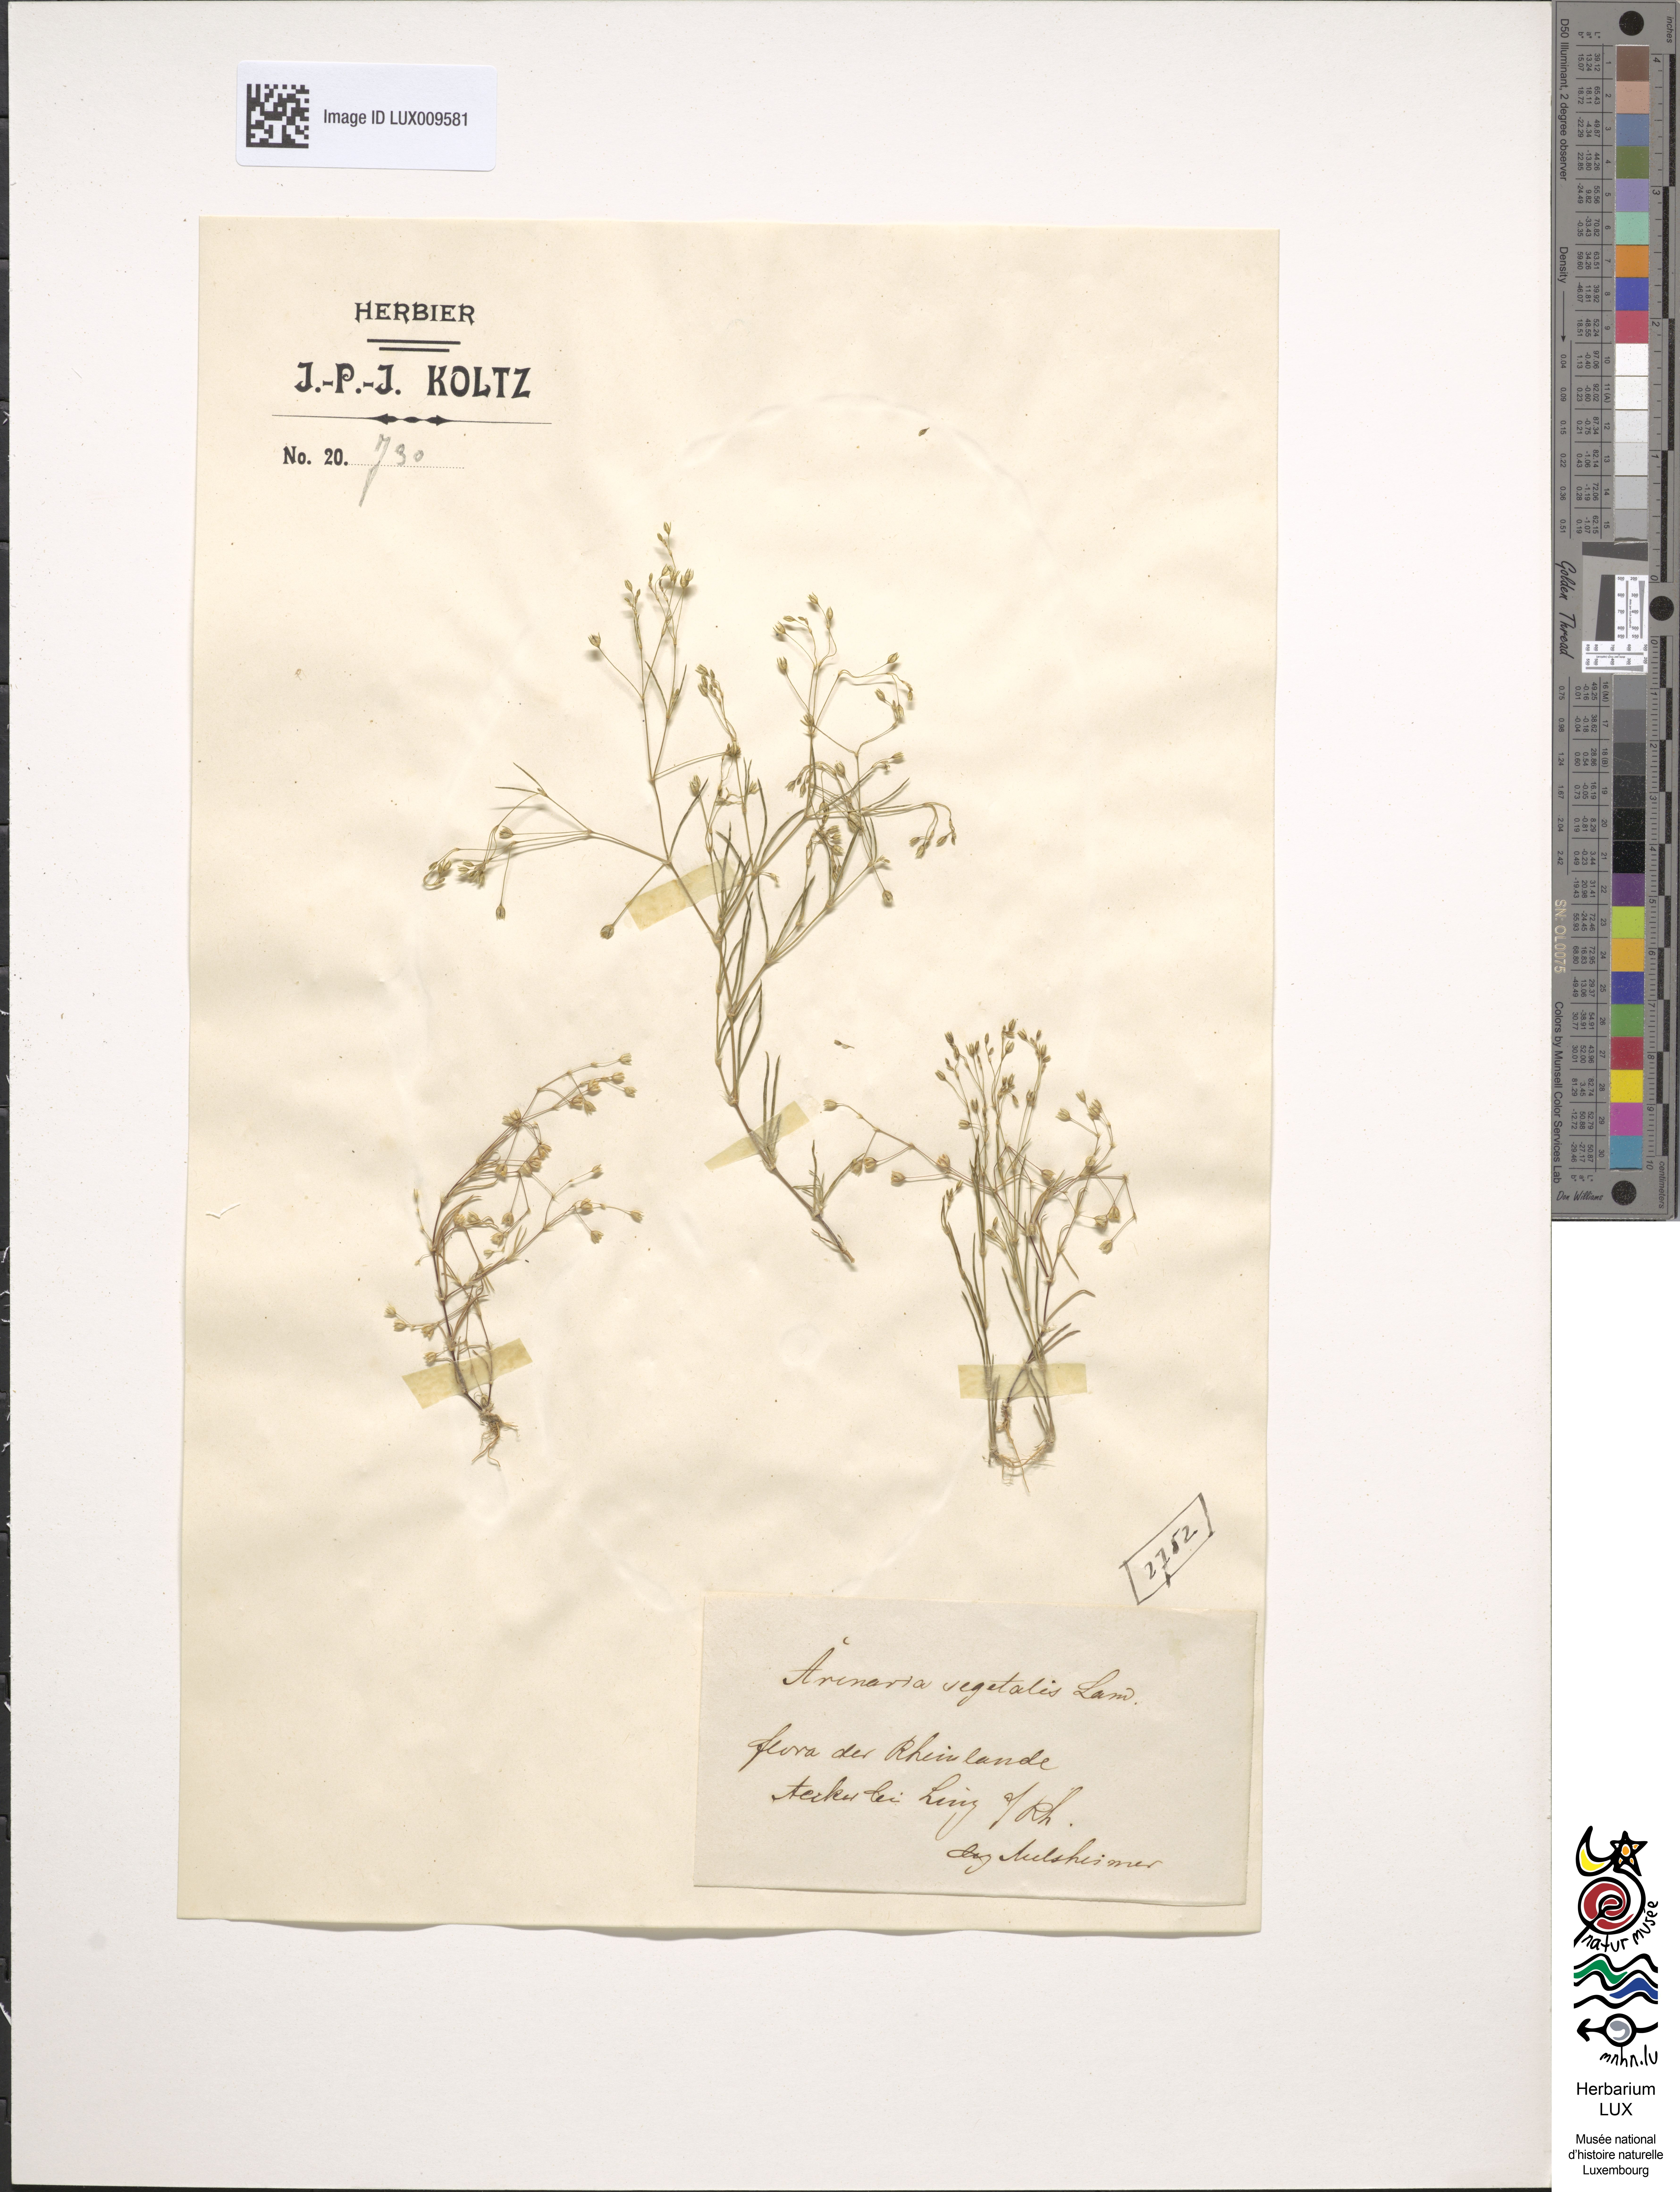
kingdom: Plantae
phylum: Tracheophyta
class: Magnoliopsida
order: Caryophyllales
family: Caryophyllaceae
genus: Spergularia
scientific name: Spergularia segetalis
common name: Corn sand spurrey
